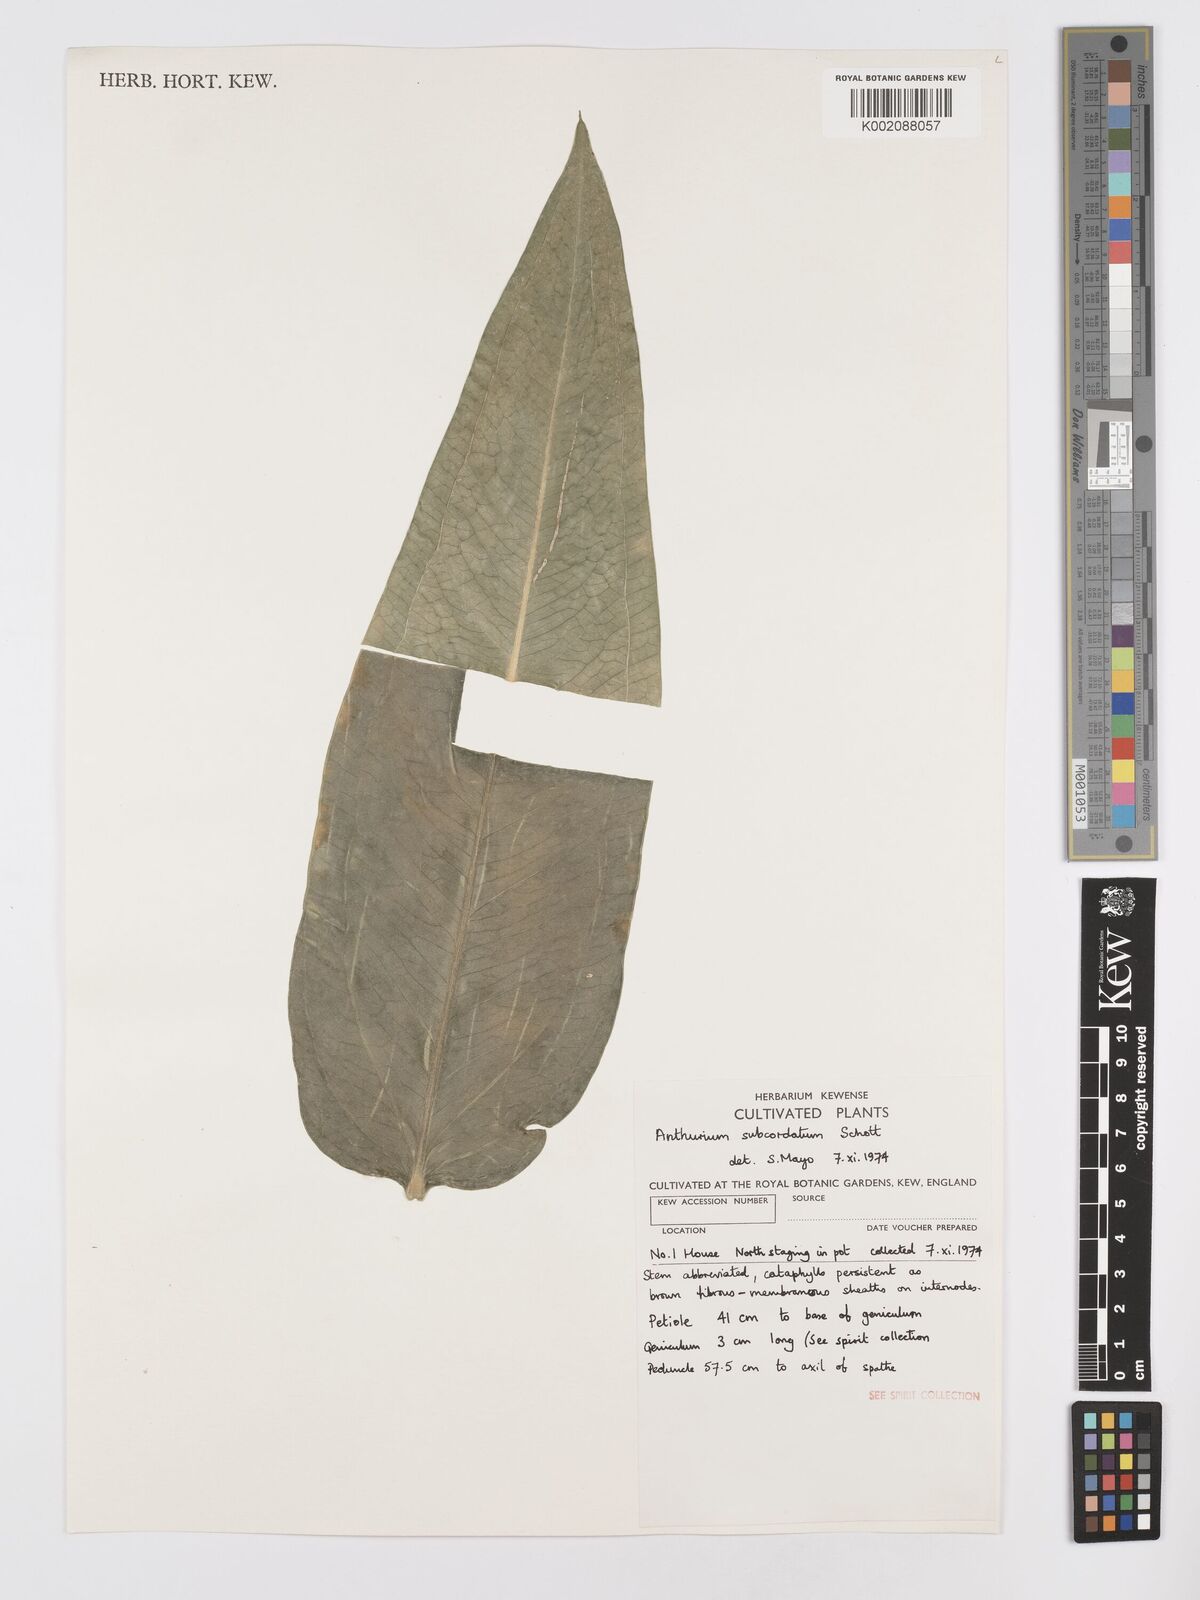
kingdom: Plantae
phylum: Tracheophyta
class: Liliopsida
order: Alismatales
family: Araceae
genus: Anthurium
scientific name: Anthurium subcordatum
